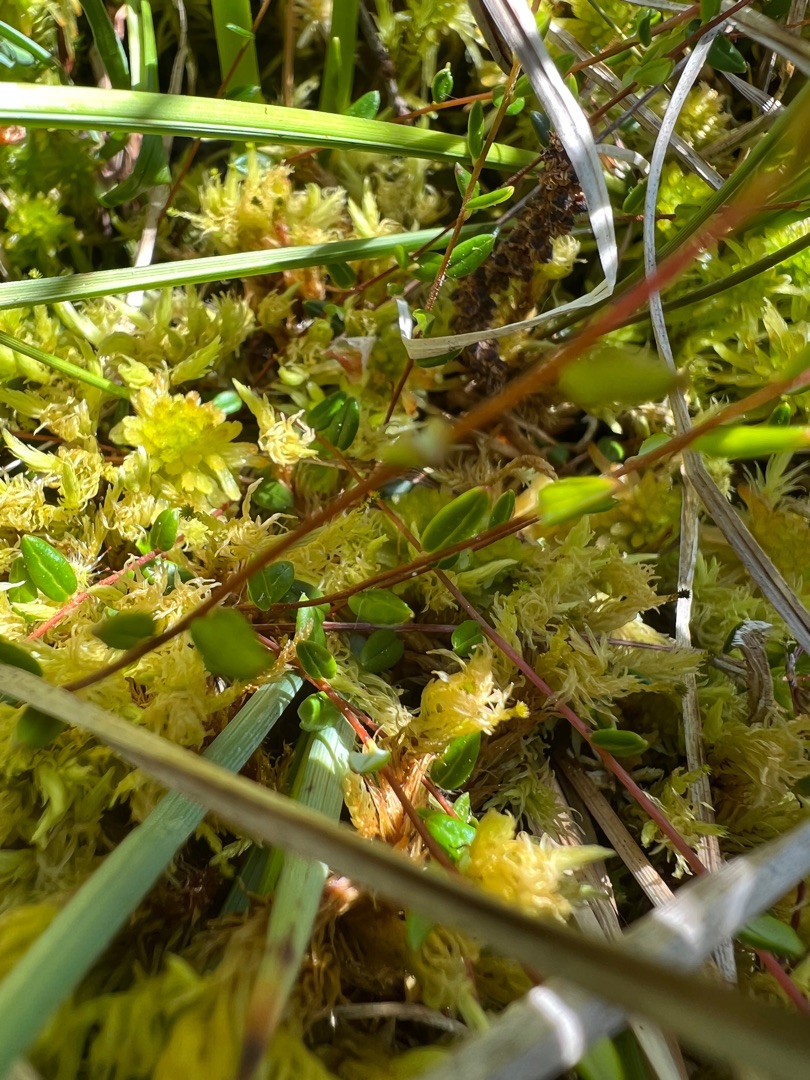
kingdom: Plantae
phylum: Tracheophyta
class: Magnoliopsida
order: Ericales
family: Ericaceae
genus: Vaccinium
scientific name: Vaccinium oxycoccos
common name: Tranebær
